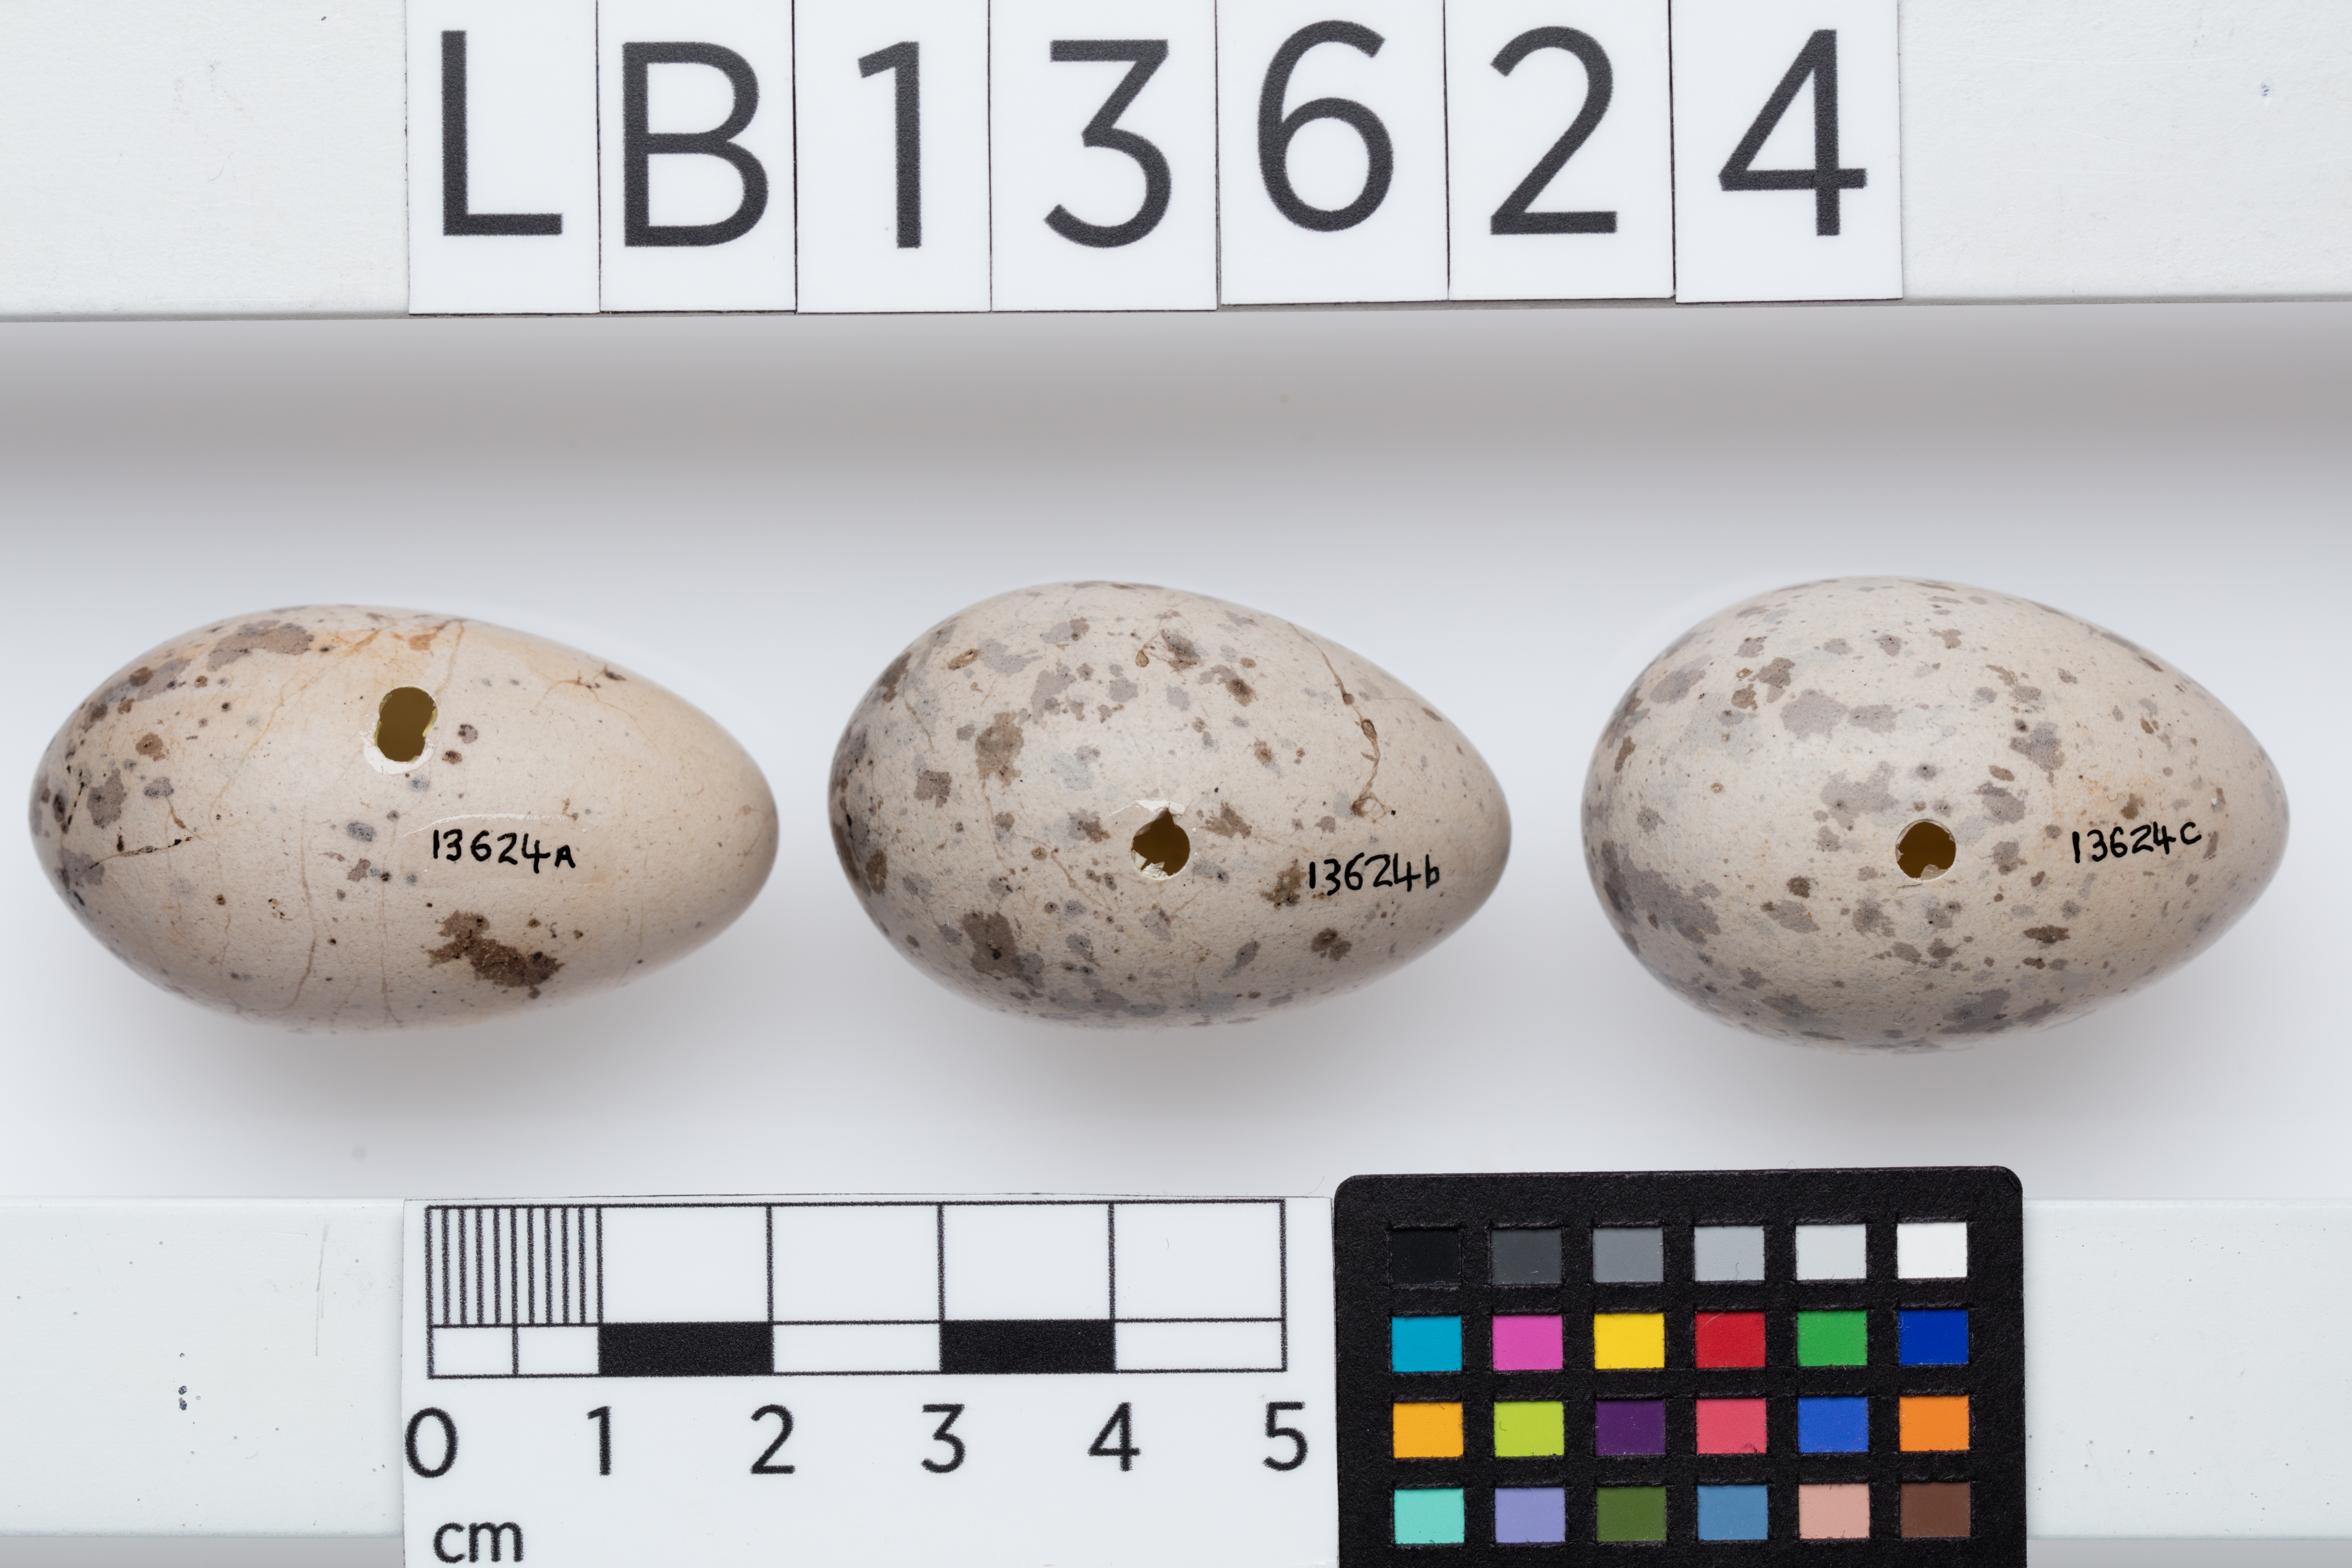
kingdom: Animalia
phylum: Chordata
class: Aves
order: Passeriformes
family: Callaeatidae
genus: Callaeas
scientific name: Callaeas cinereus
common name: South island kokako
